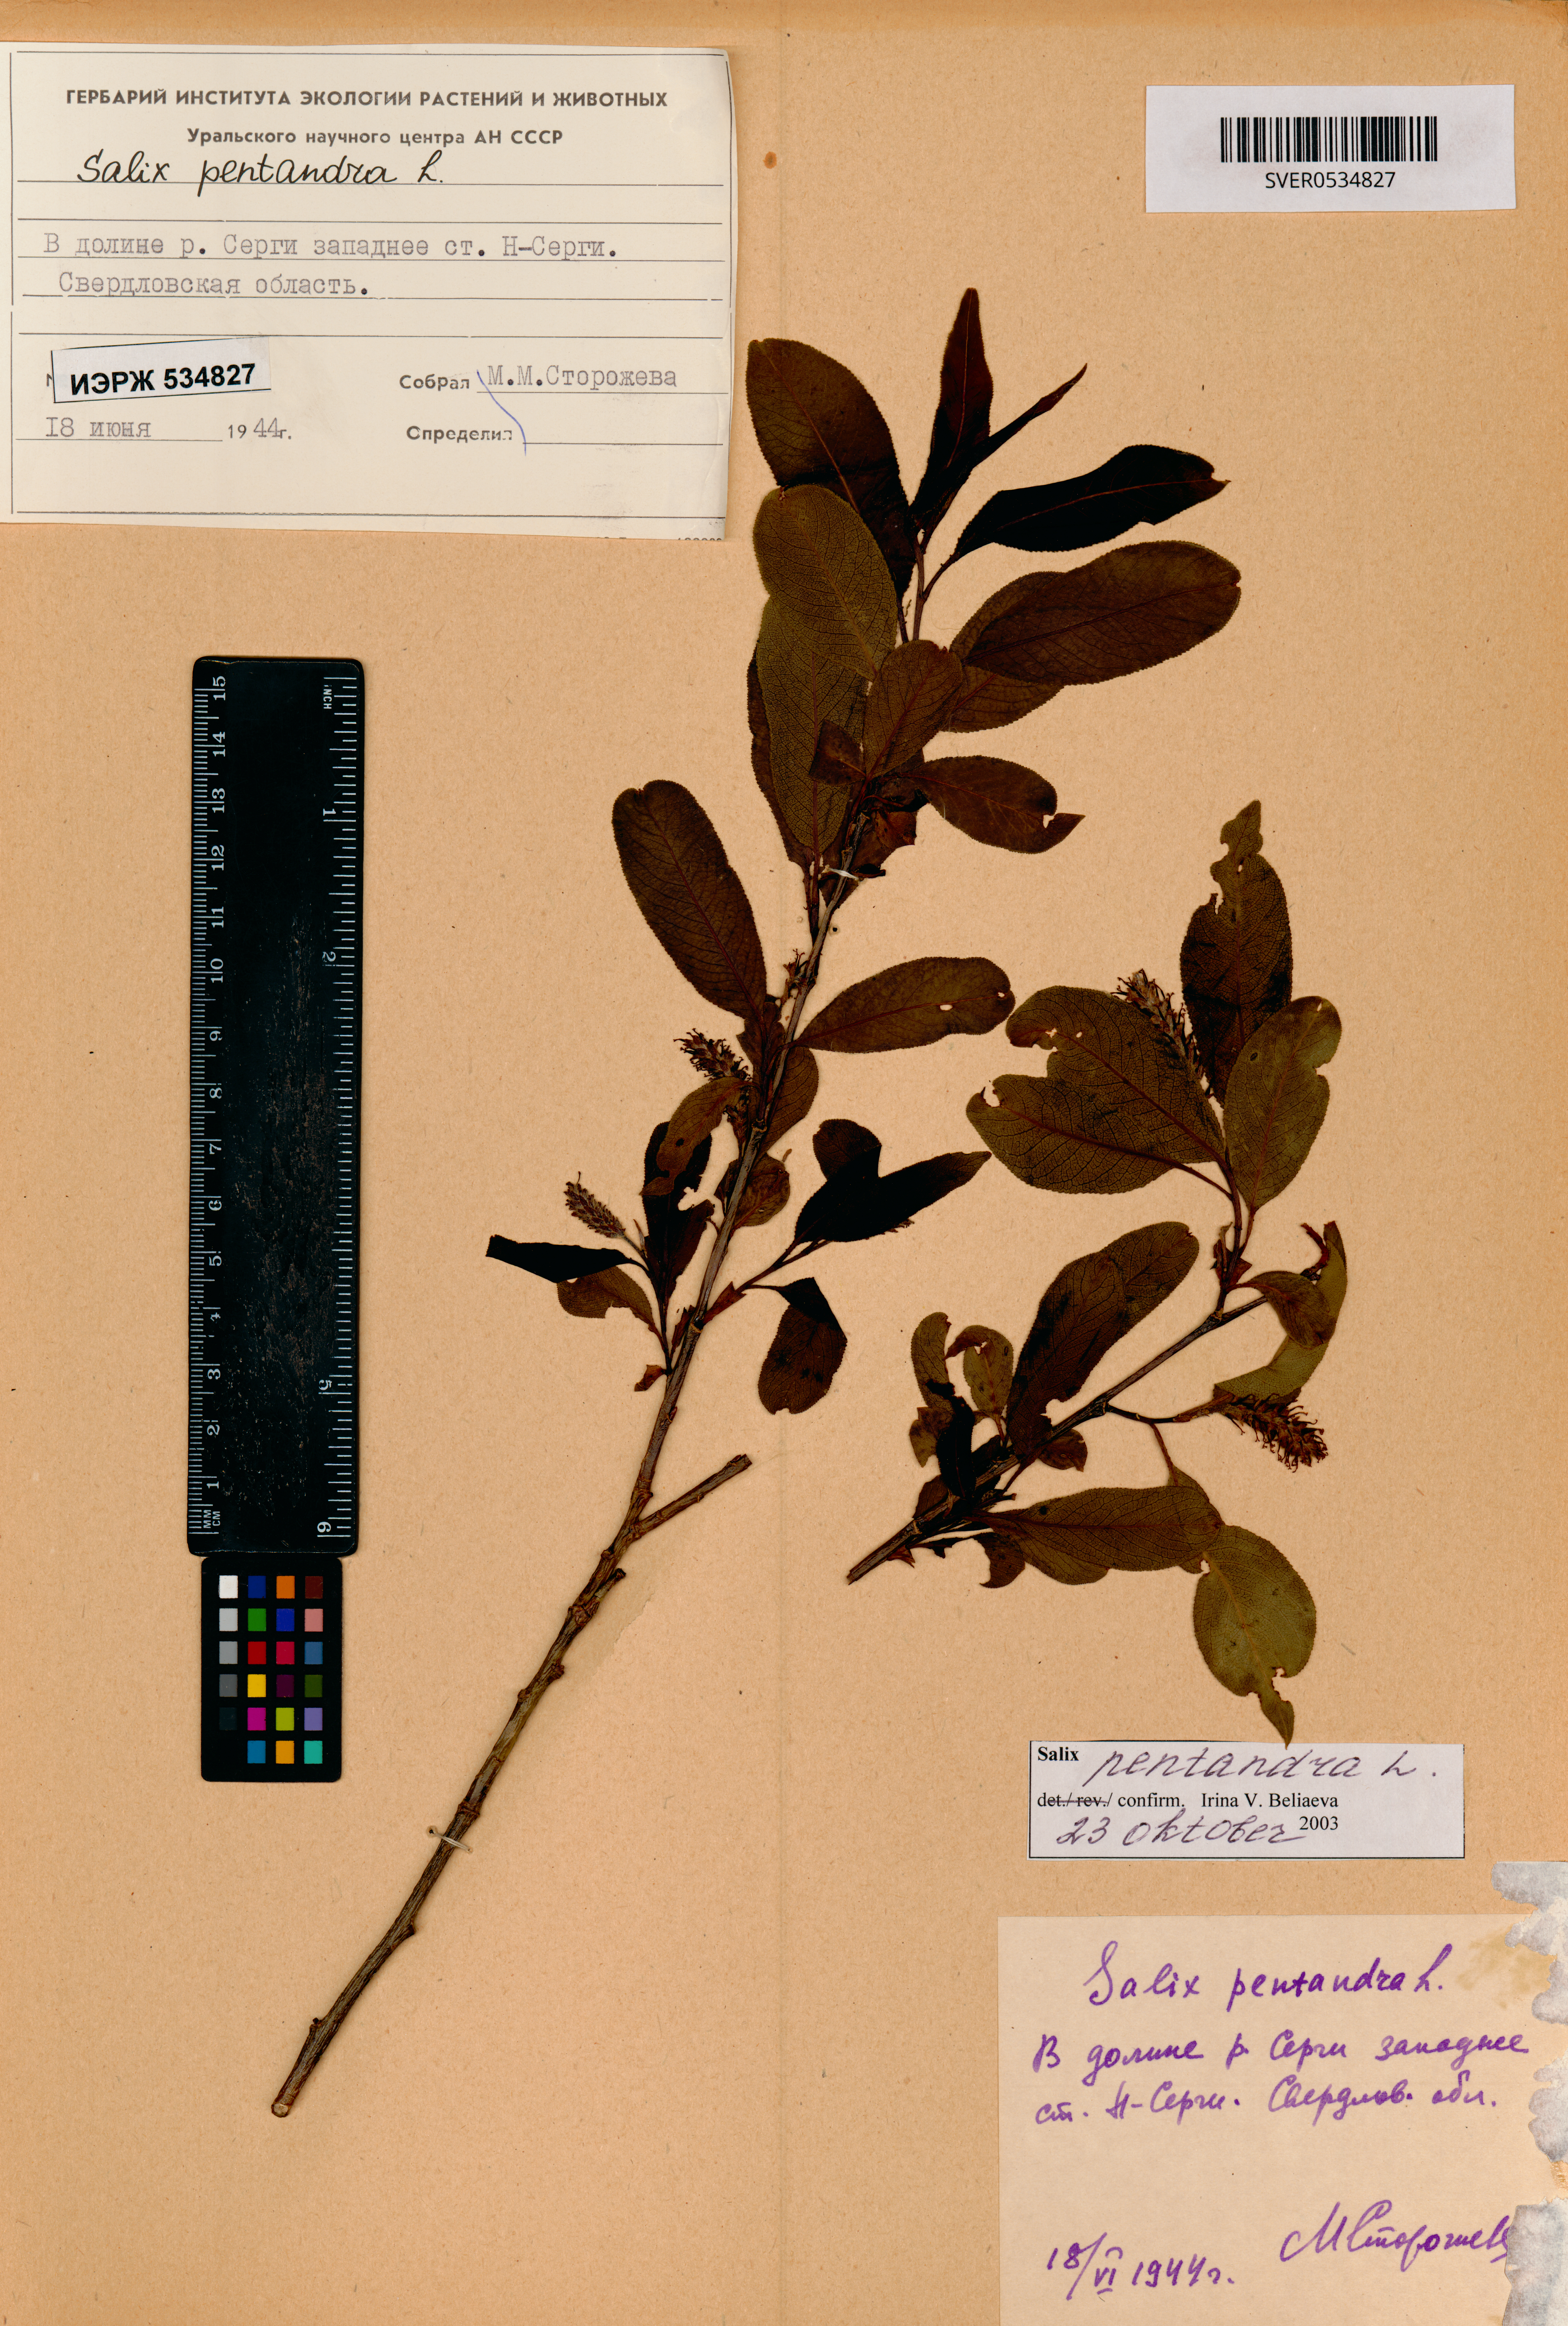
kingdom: Plantae
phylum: Tracheophyta
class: Magnoliopsida
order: Malpighiales
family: Salicaceae
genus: Salix
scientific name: Salix pentandra
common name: Bay willow
